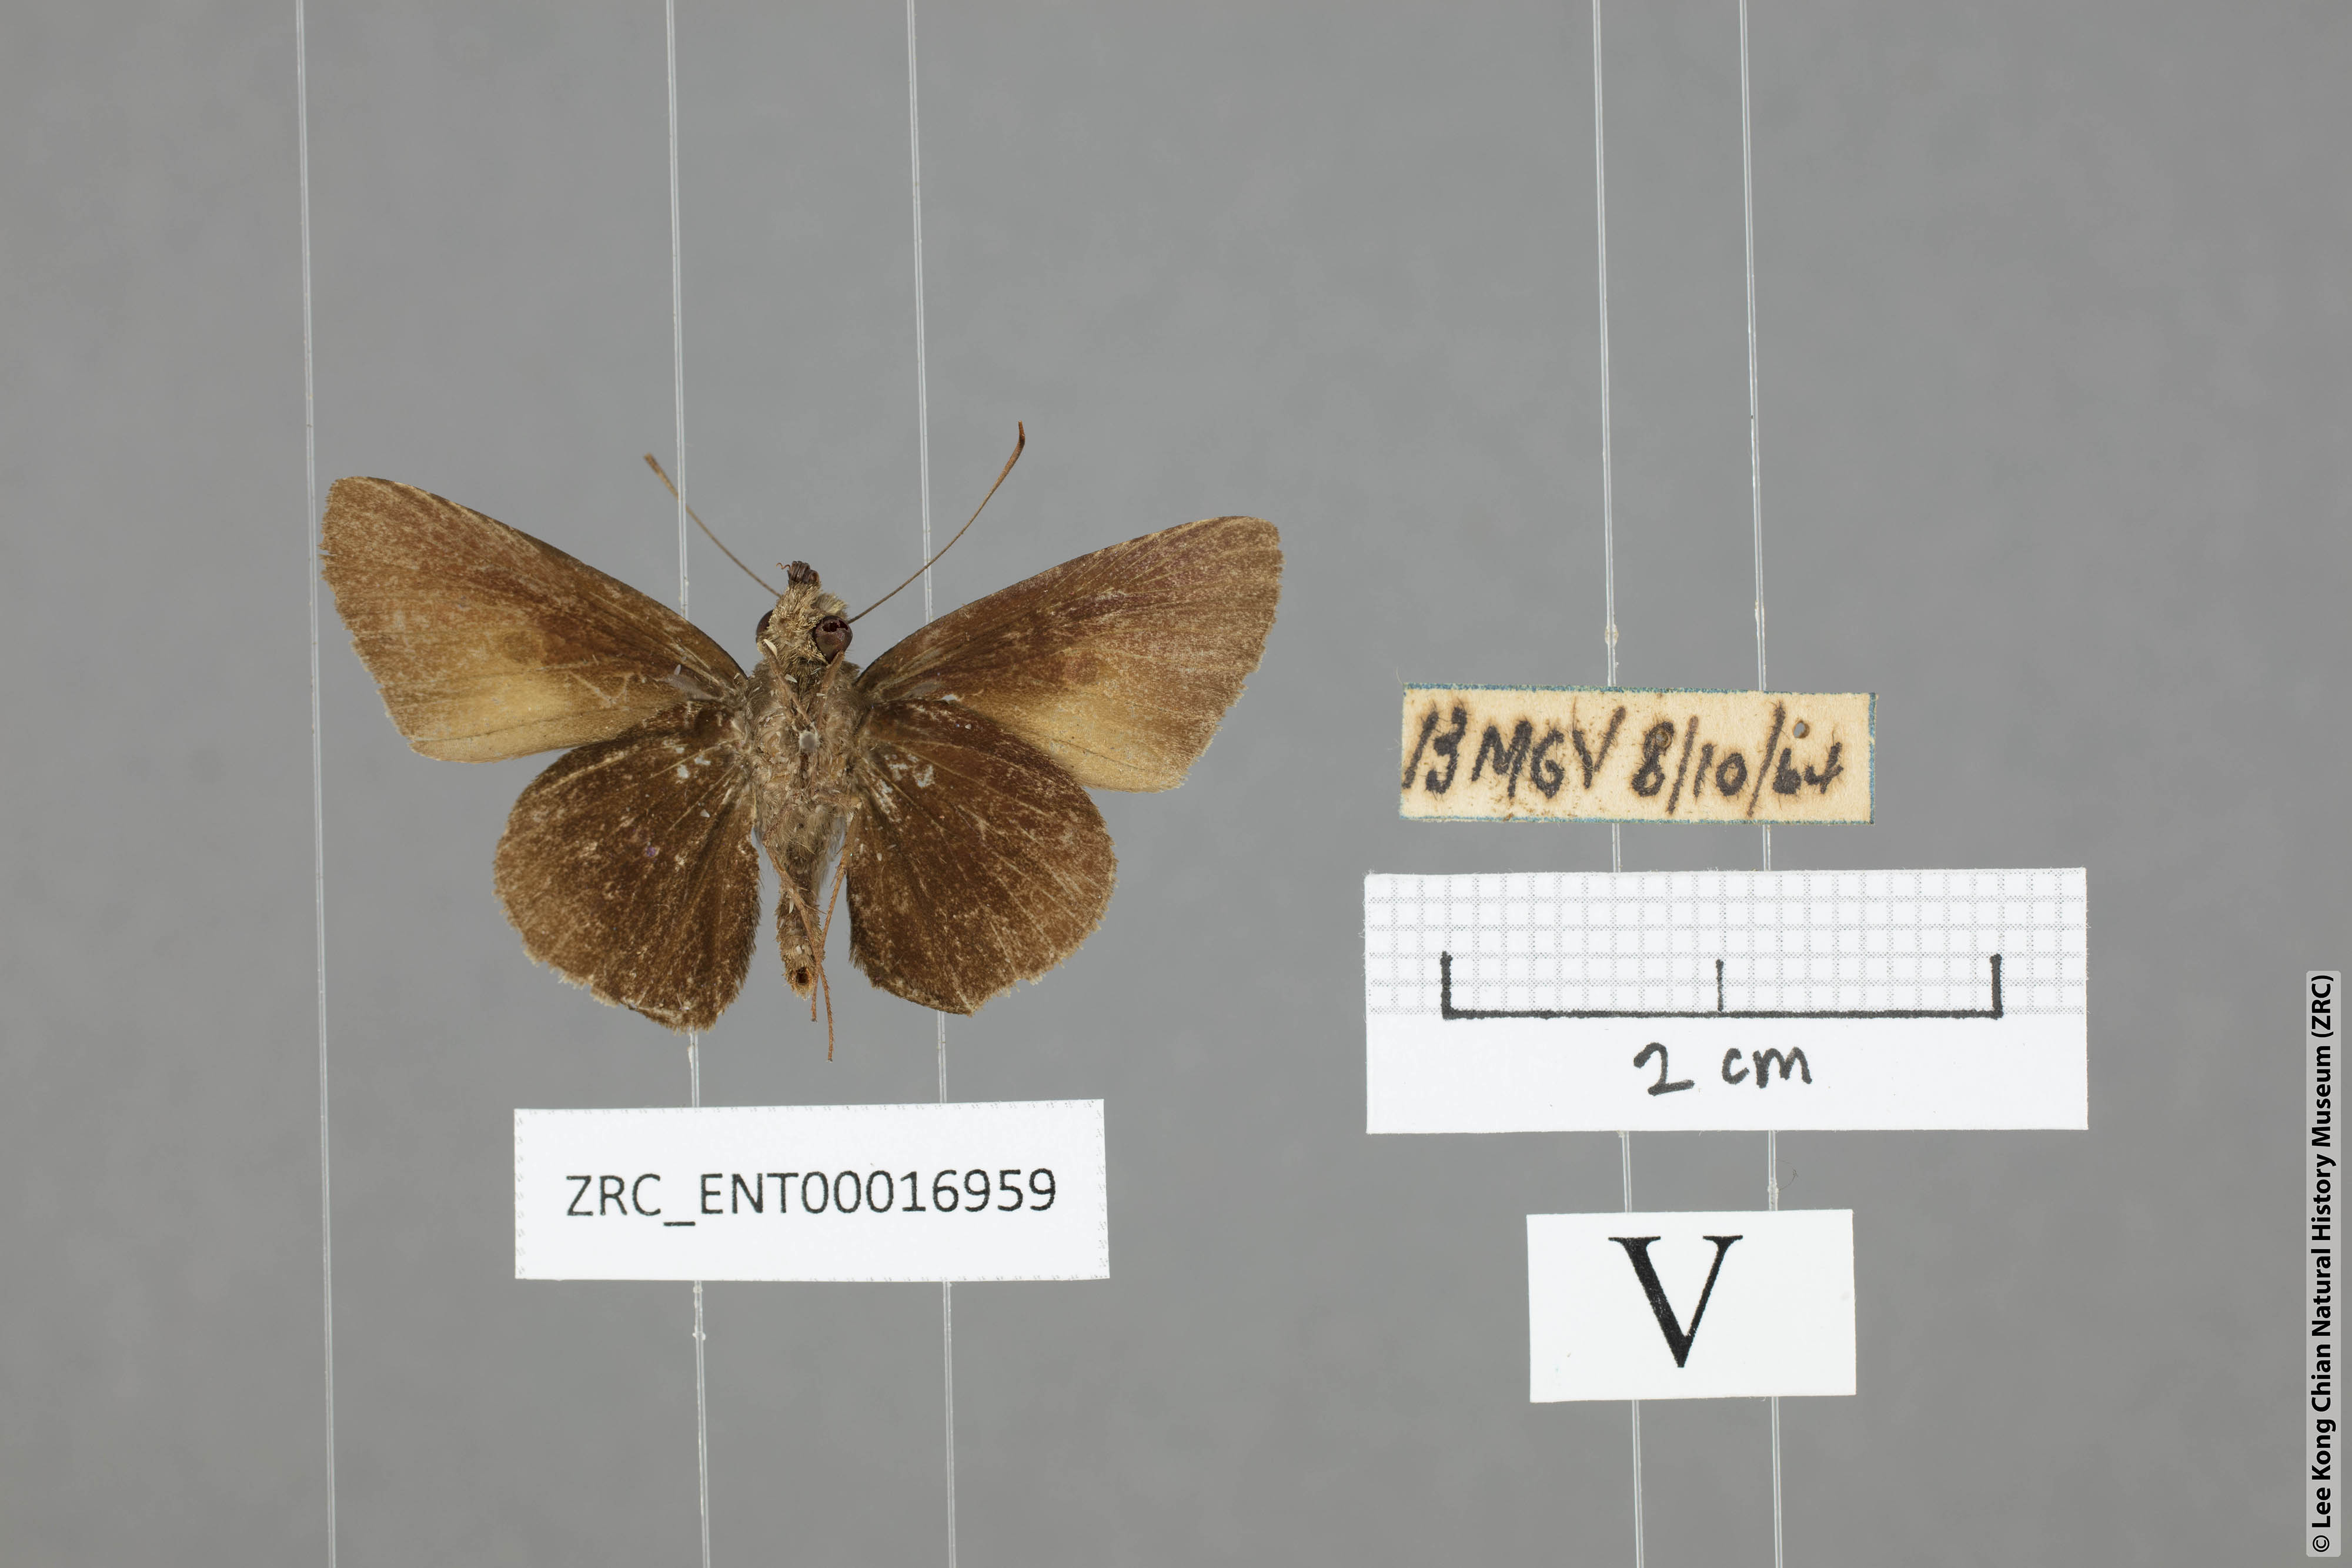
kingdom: Animalia
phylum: Arthropoda
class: Insecta
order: Lepidoptera
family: Hesperiidae
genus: Ge
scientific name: Ge
